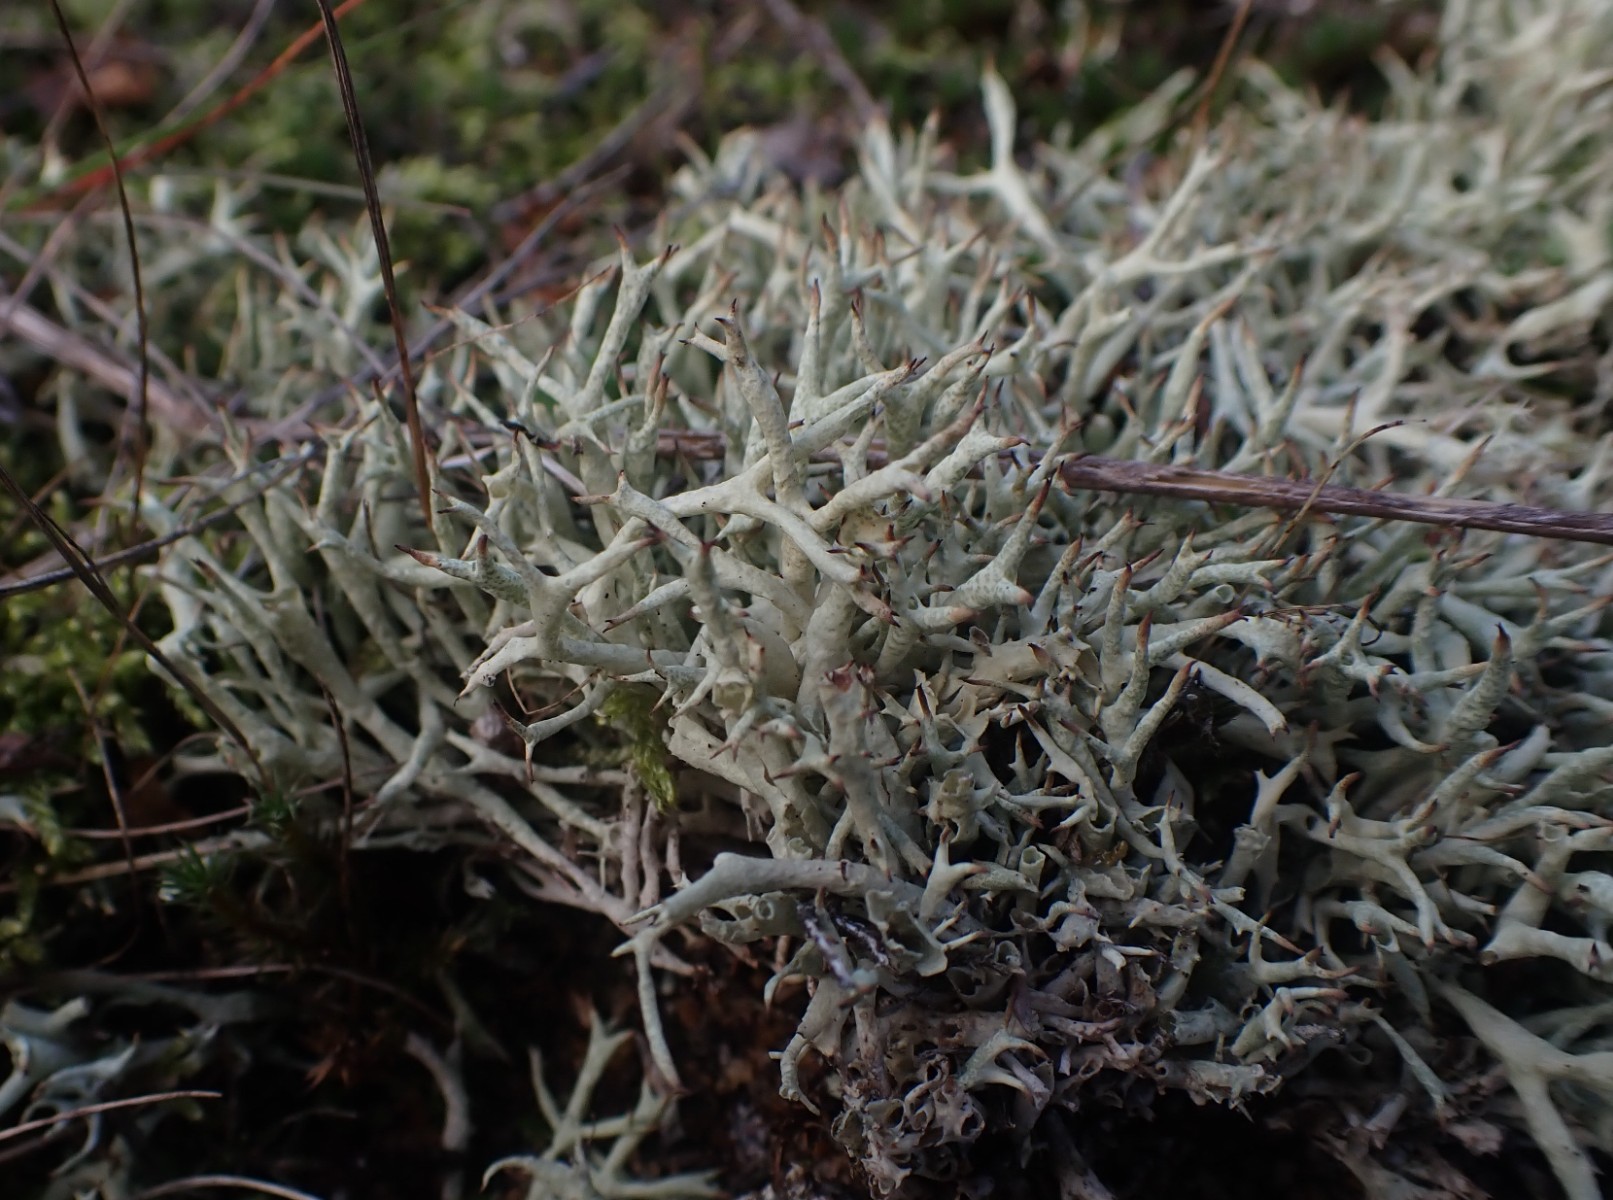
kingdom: Fungi
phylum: Ascomycota
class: Lecanoromycetes
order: Lecanorales
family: Cladoniaceae
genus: Cladonia
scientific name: Cladonia uncialis
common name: pigget bægerlav
